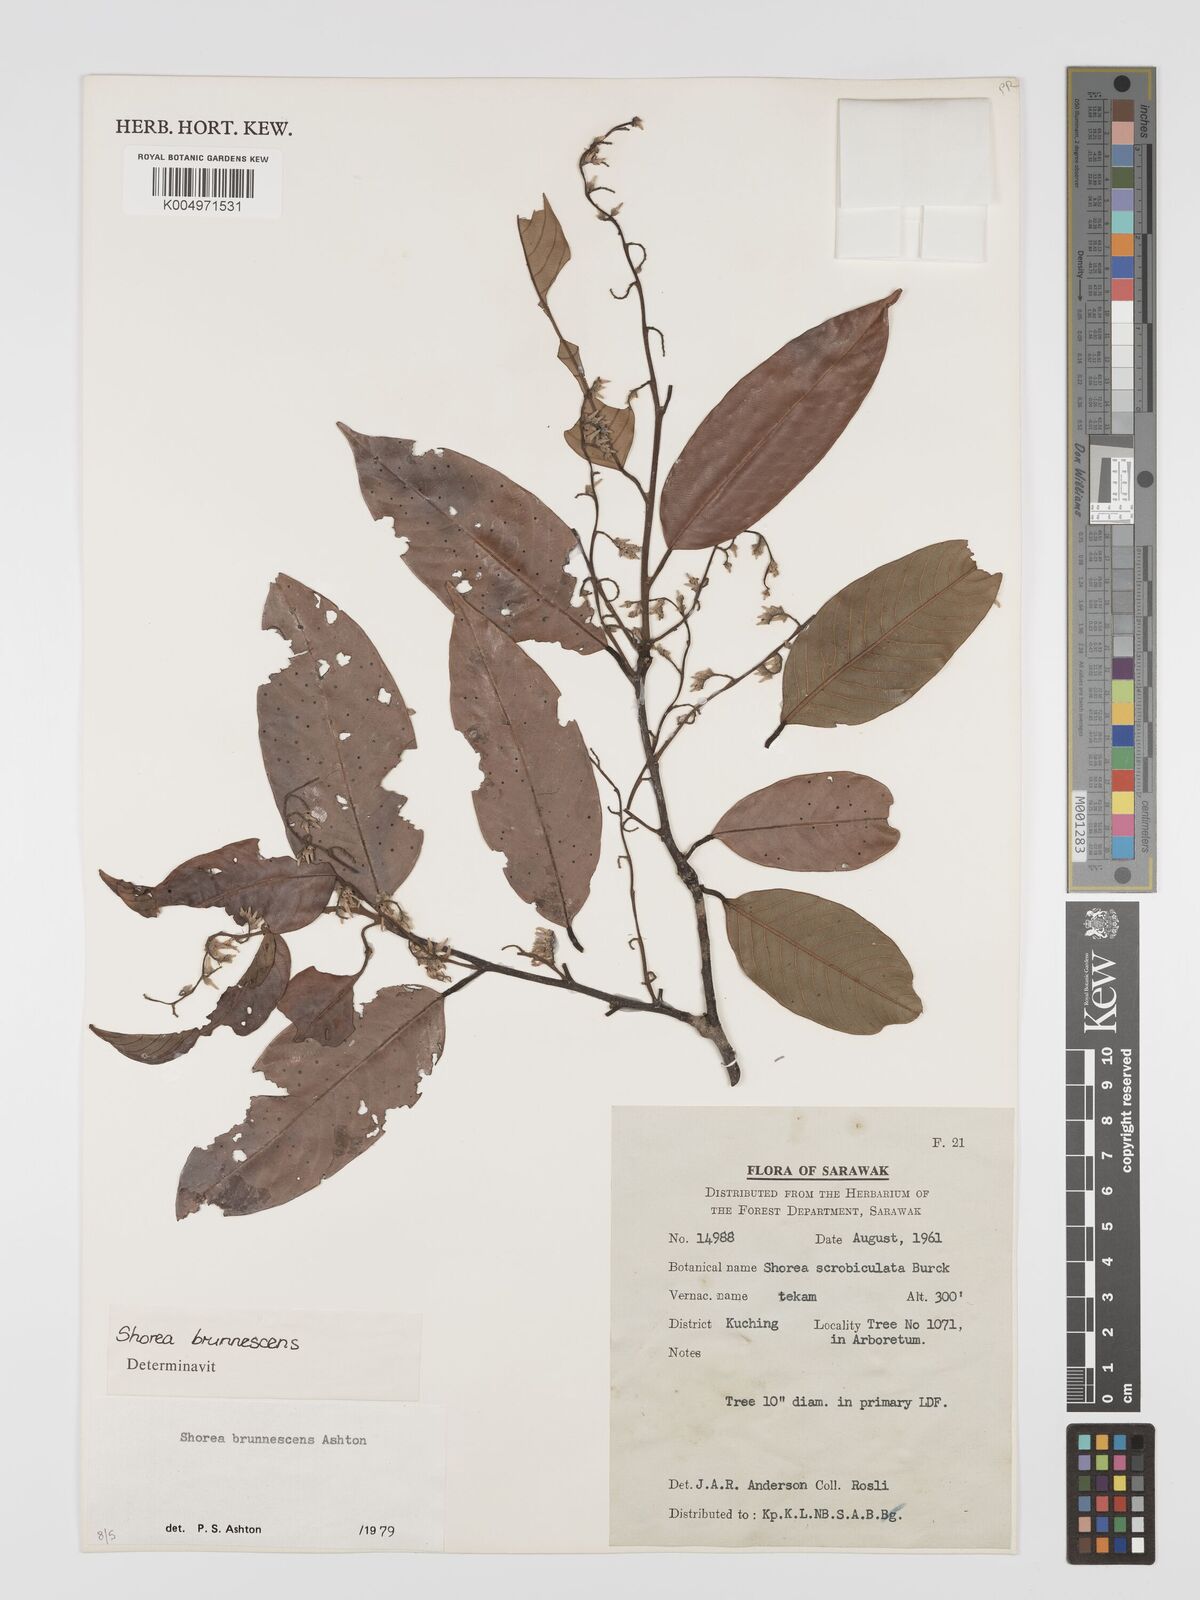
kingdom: Plantae
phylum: Tracheophyta
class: Magnoliopsida
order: Malvales
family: Dipterocarpaceae
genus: Shorea
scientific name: Shorea brunnescens
